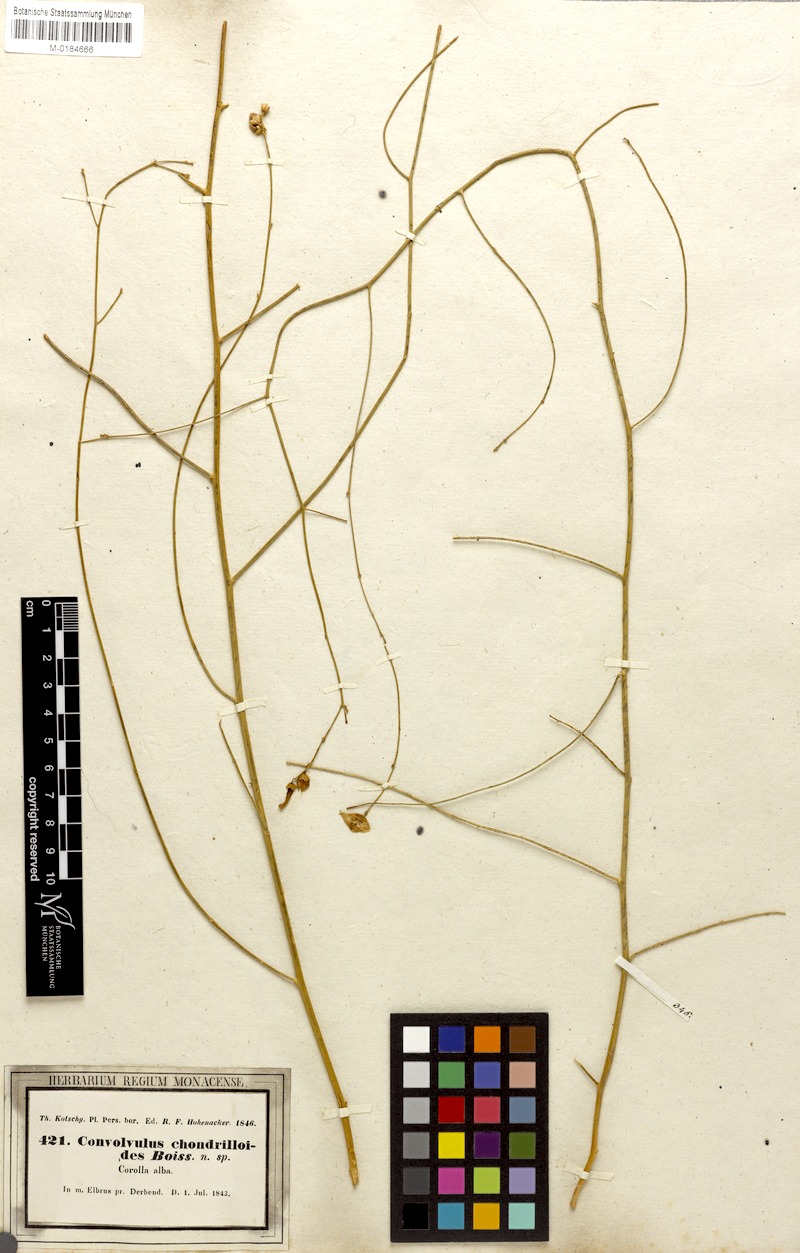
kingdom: Plantae
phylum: Tracheophyta
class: Magnoliopsida
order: Solanales
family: Convolvulaceae
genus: Convolvulus
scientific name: Convolvulus chondrilloides
